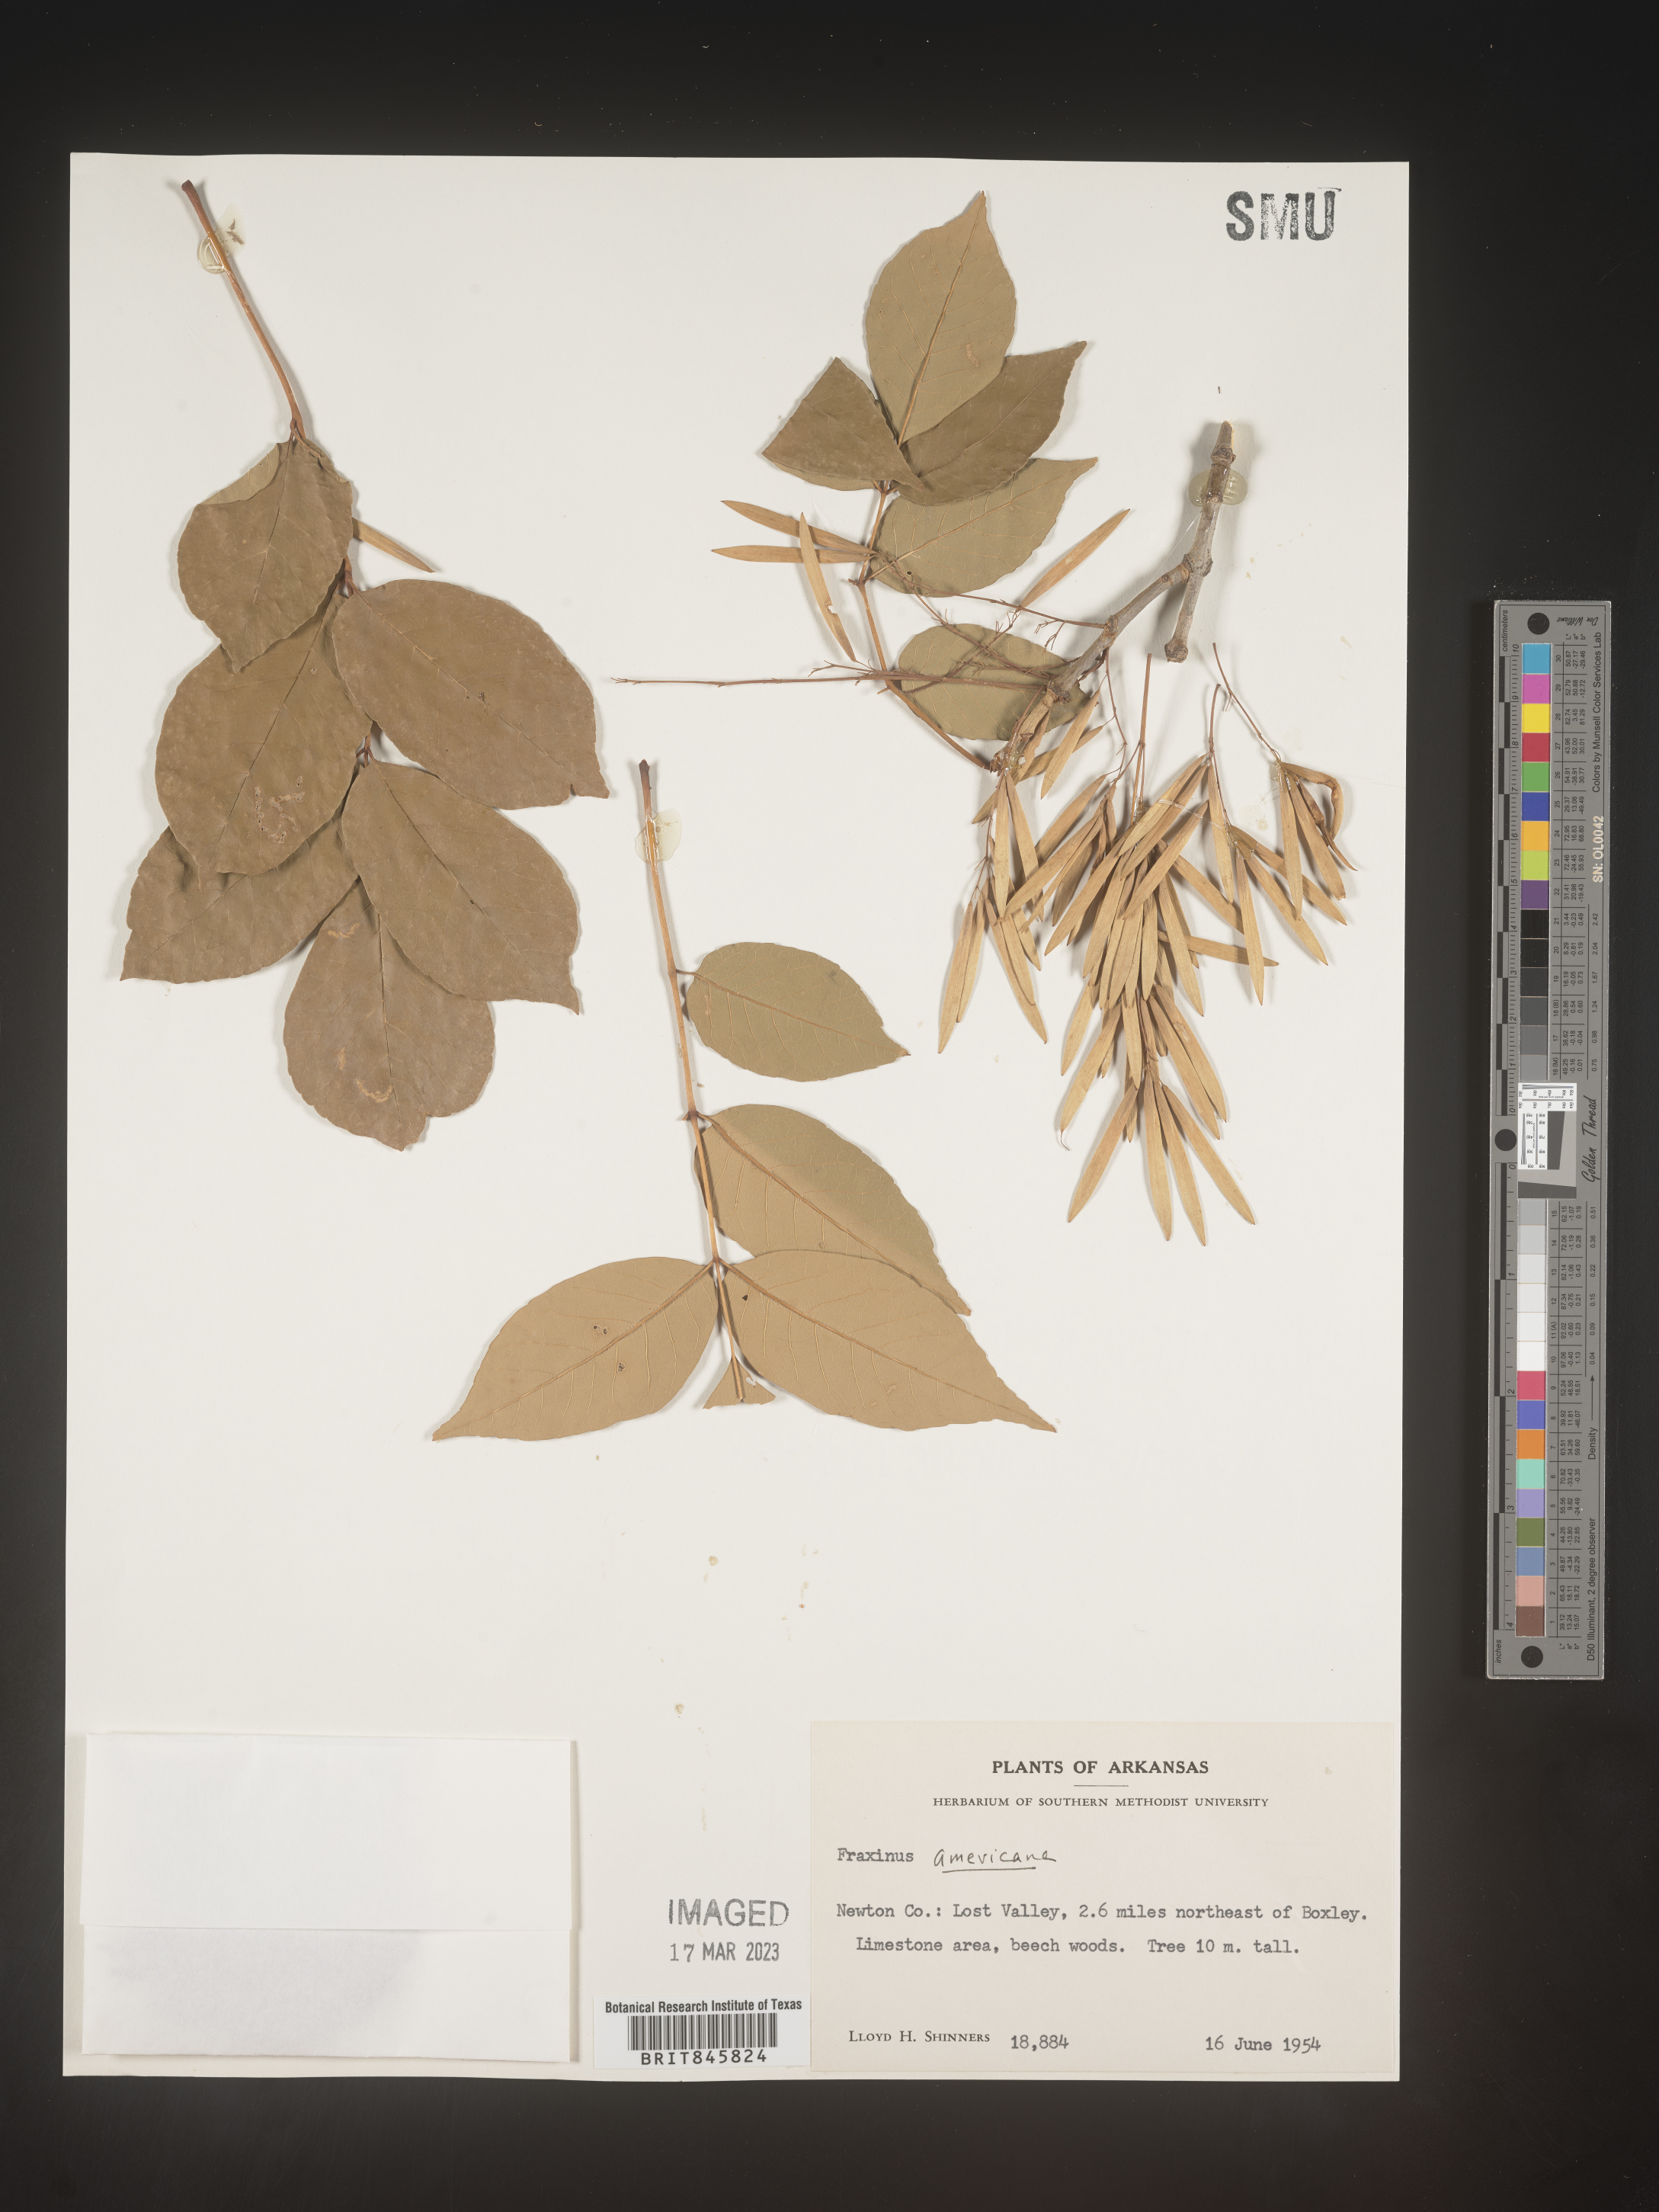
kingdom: Plantae
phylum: Tracheophyta
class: Magnoliopsida
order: Lamiales
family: Oleaceae
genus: Fraxinus
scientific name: Fraxinus americana
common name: White ash
